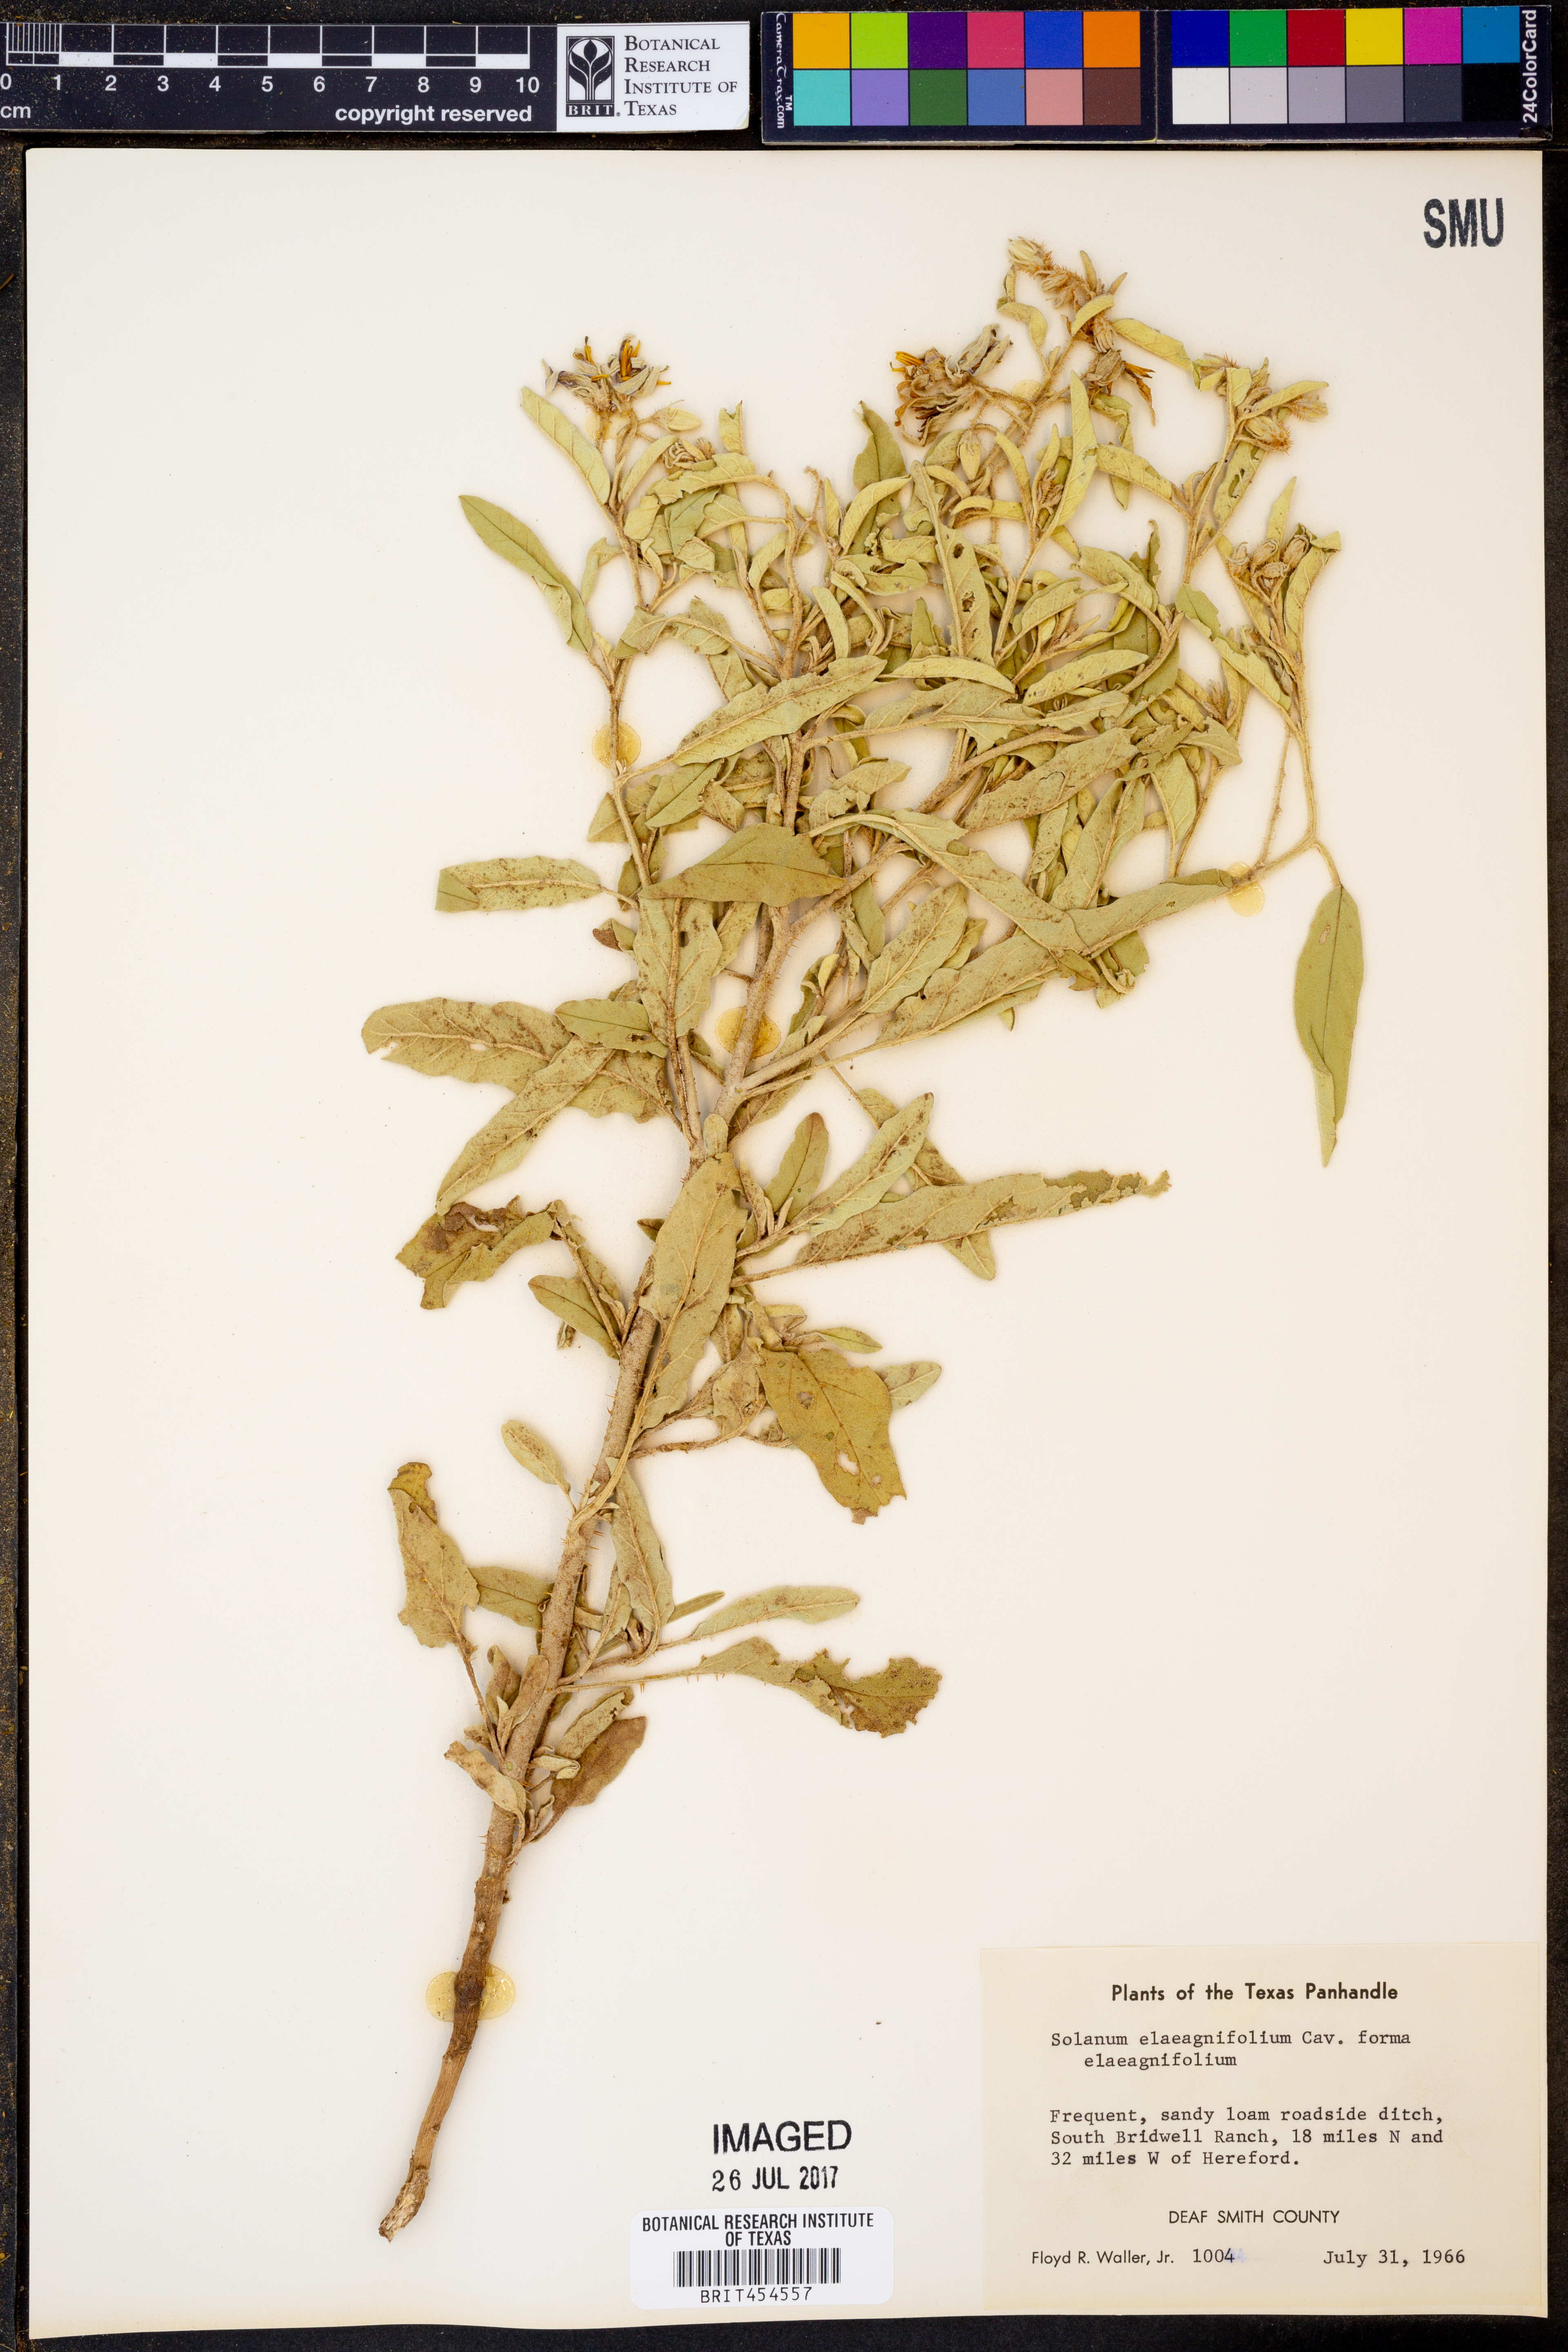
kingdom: Plantae
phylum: Tracheophyta
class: Magnoliopsida
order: Solanales
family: Solanaceae
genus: Solanum
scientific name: Solanum elaeagnifolium
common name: Silverleaf nightshade
